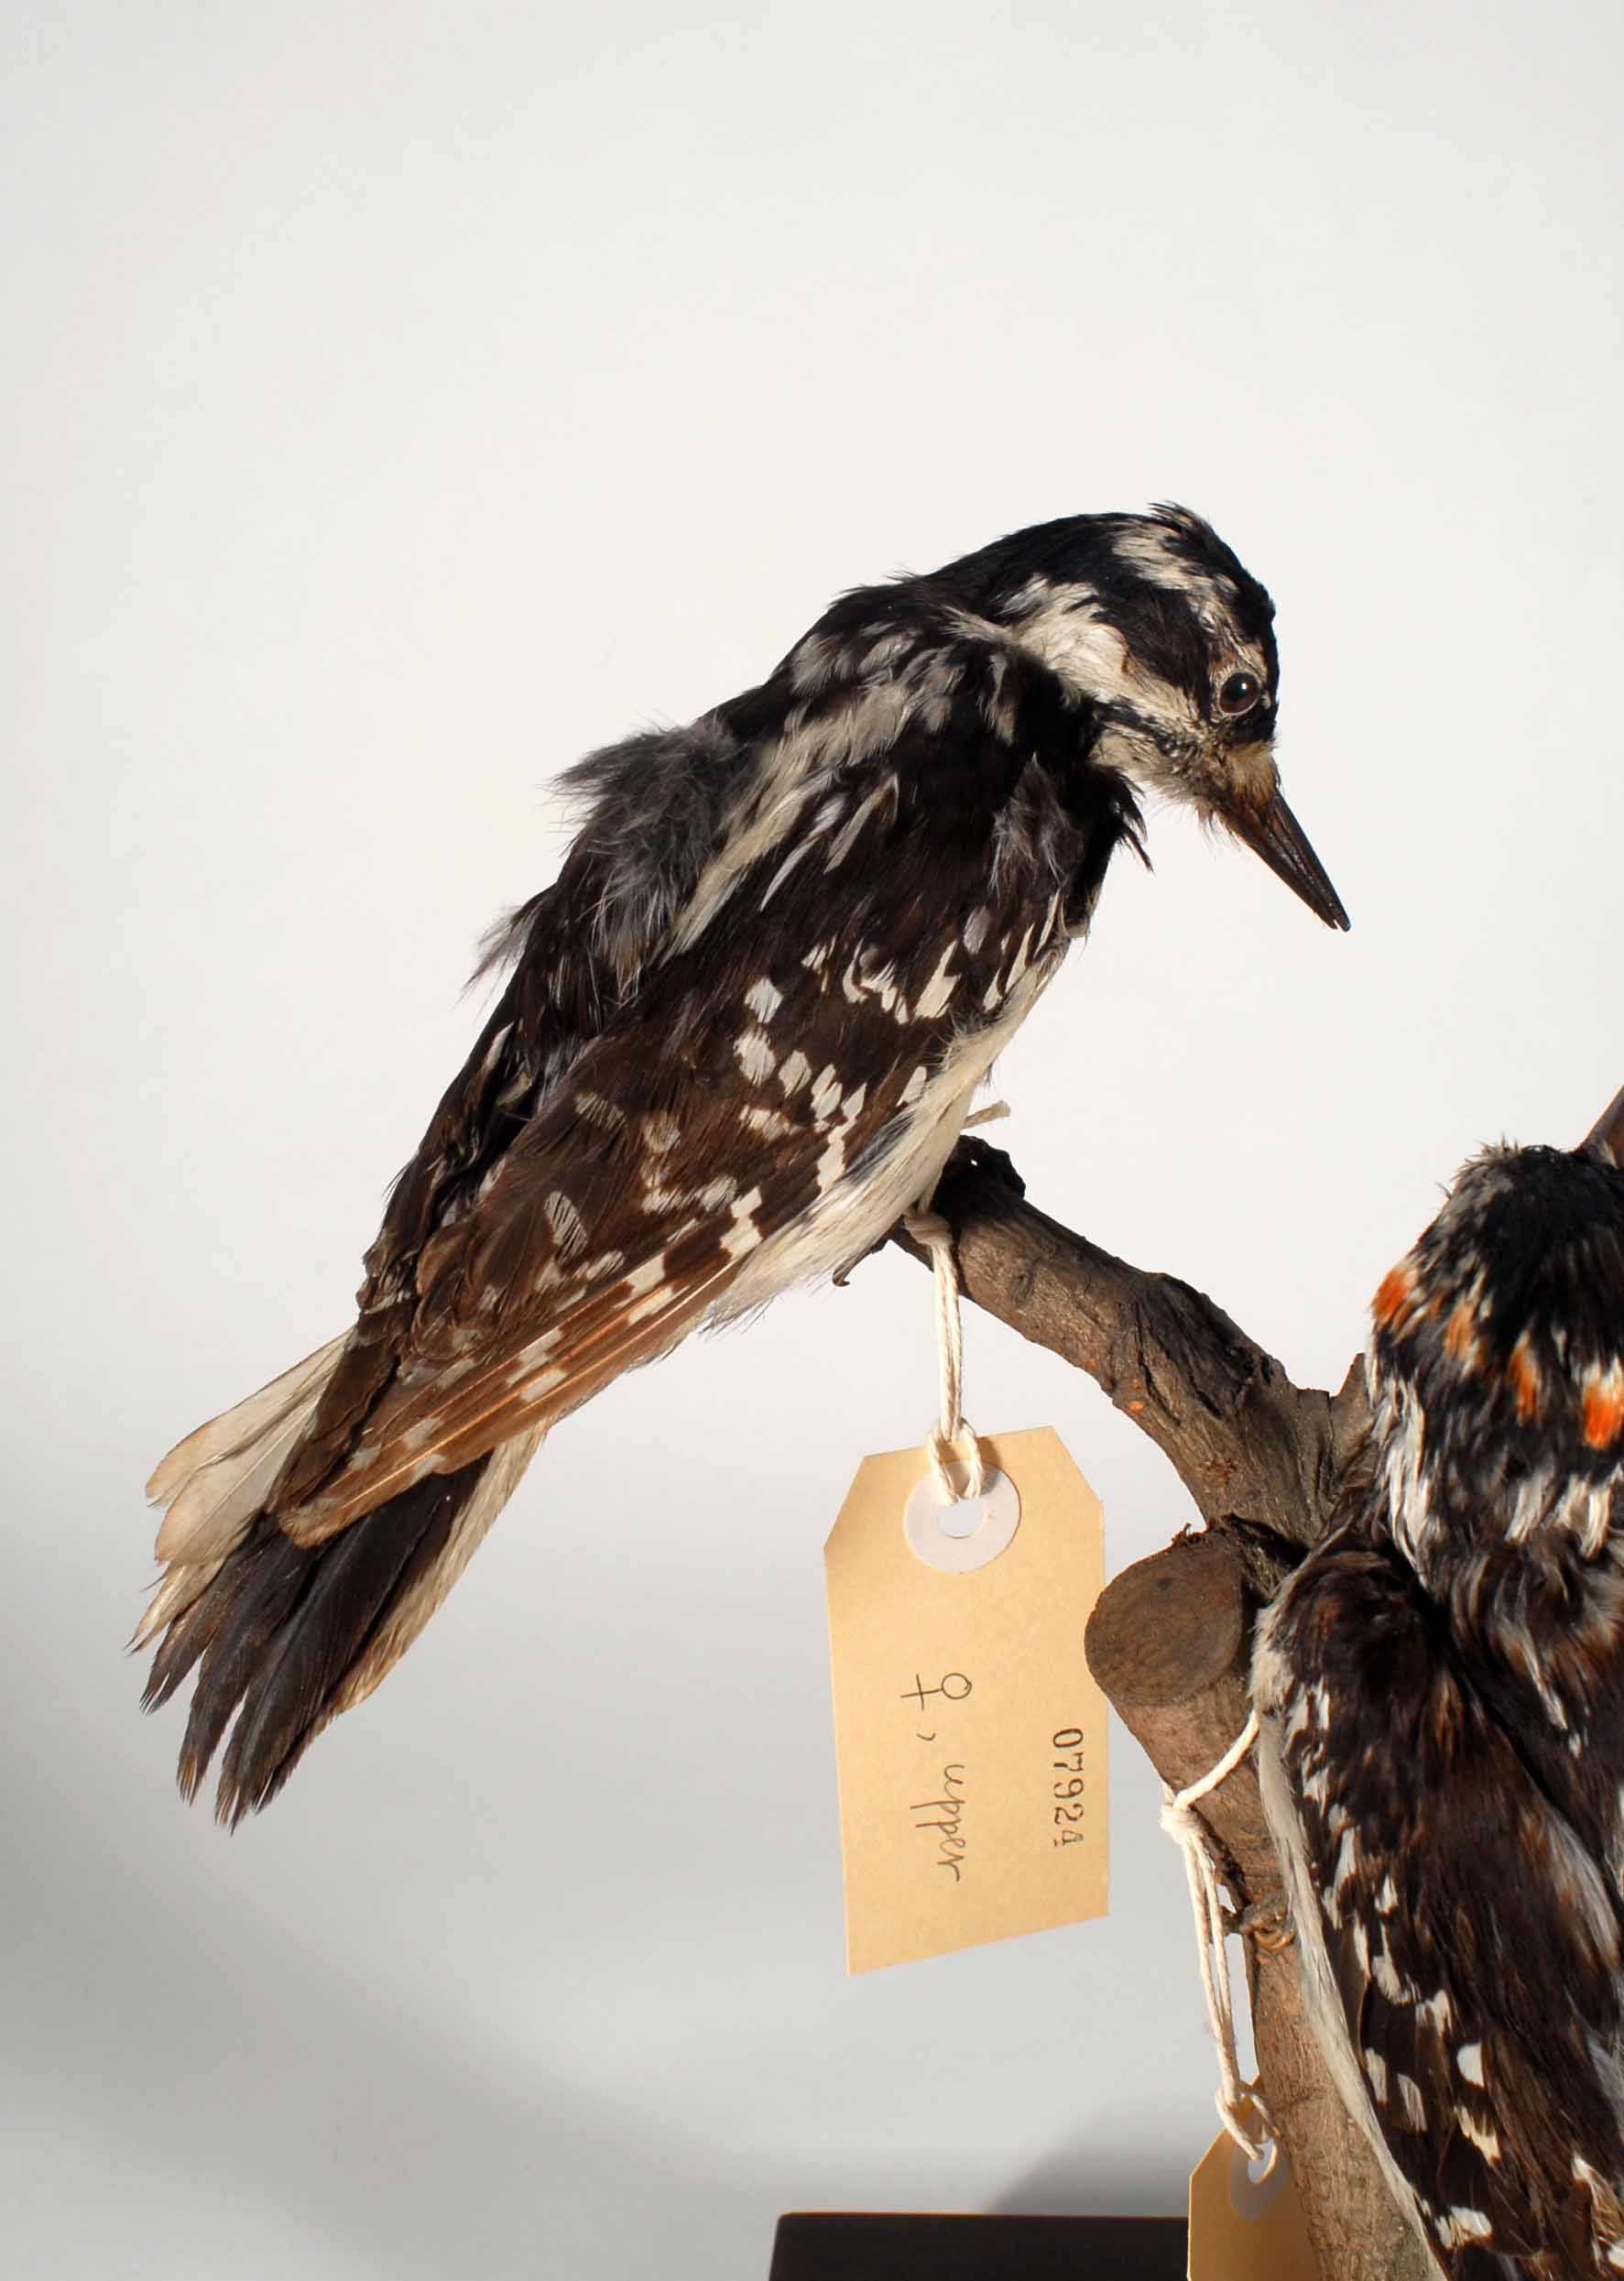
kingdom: Animalia
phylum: Chordata
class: Aves
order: Piciformes
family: Picidae
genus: Leuconotopicus
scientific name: Leuconotopicus villosus
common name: Hairy woodpecker
